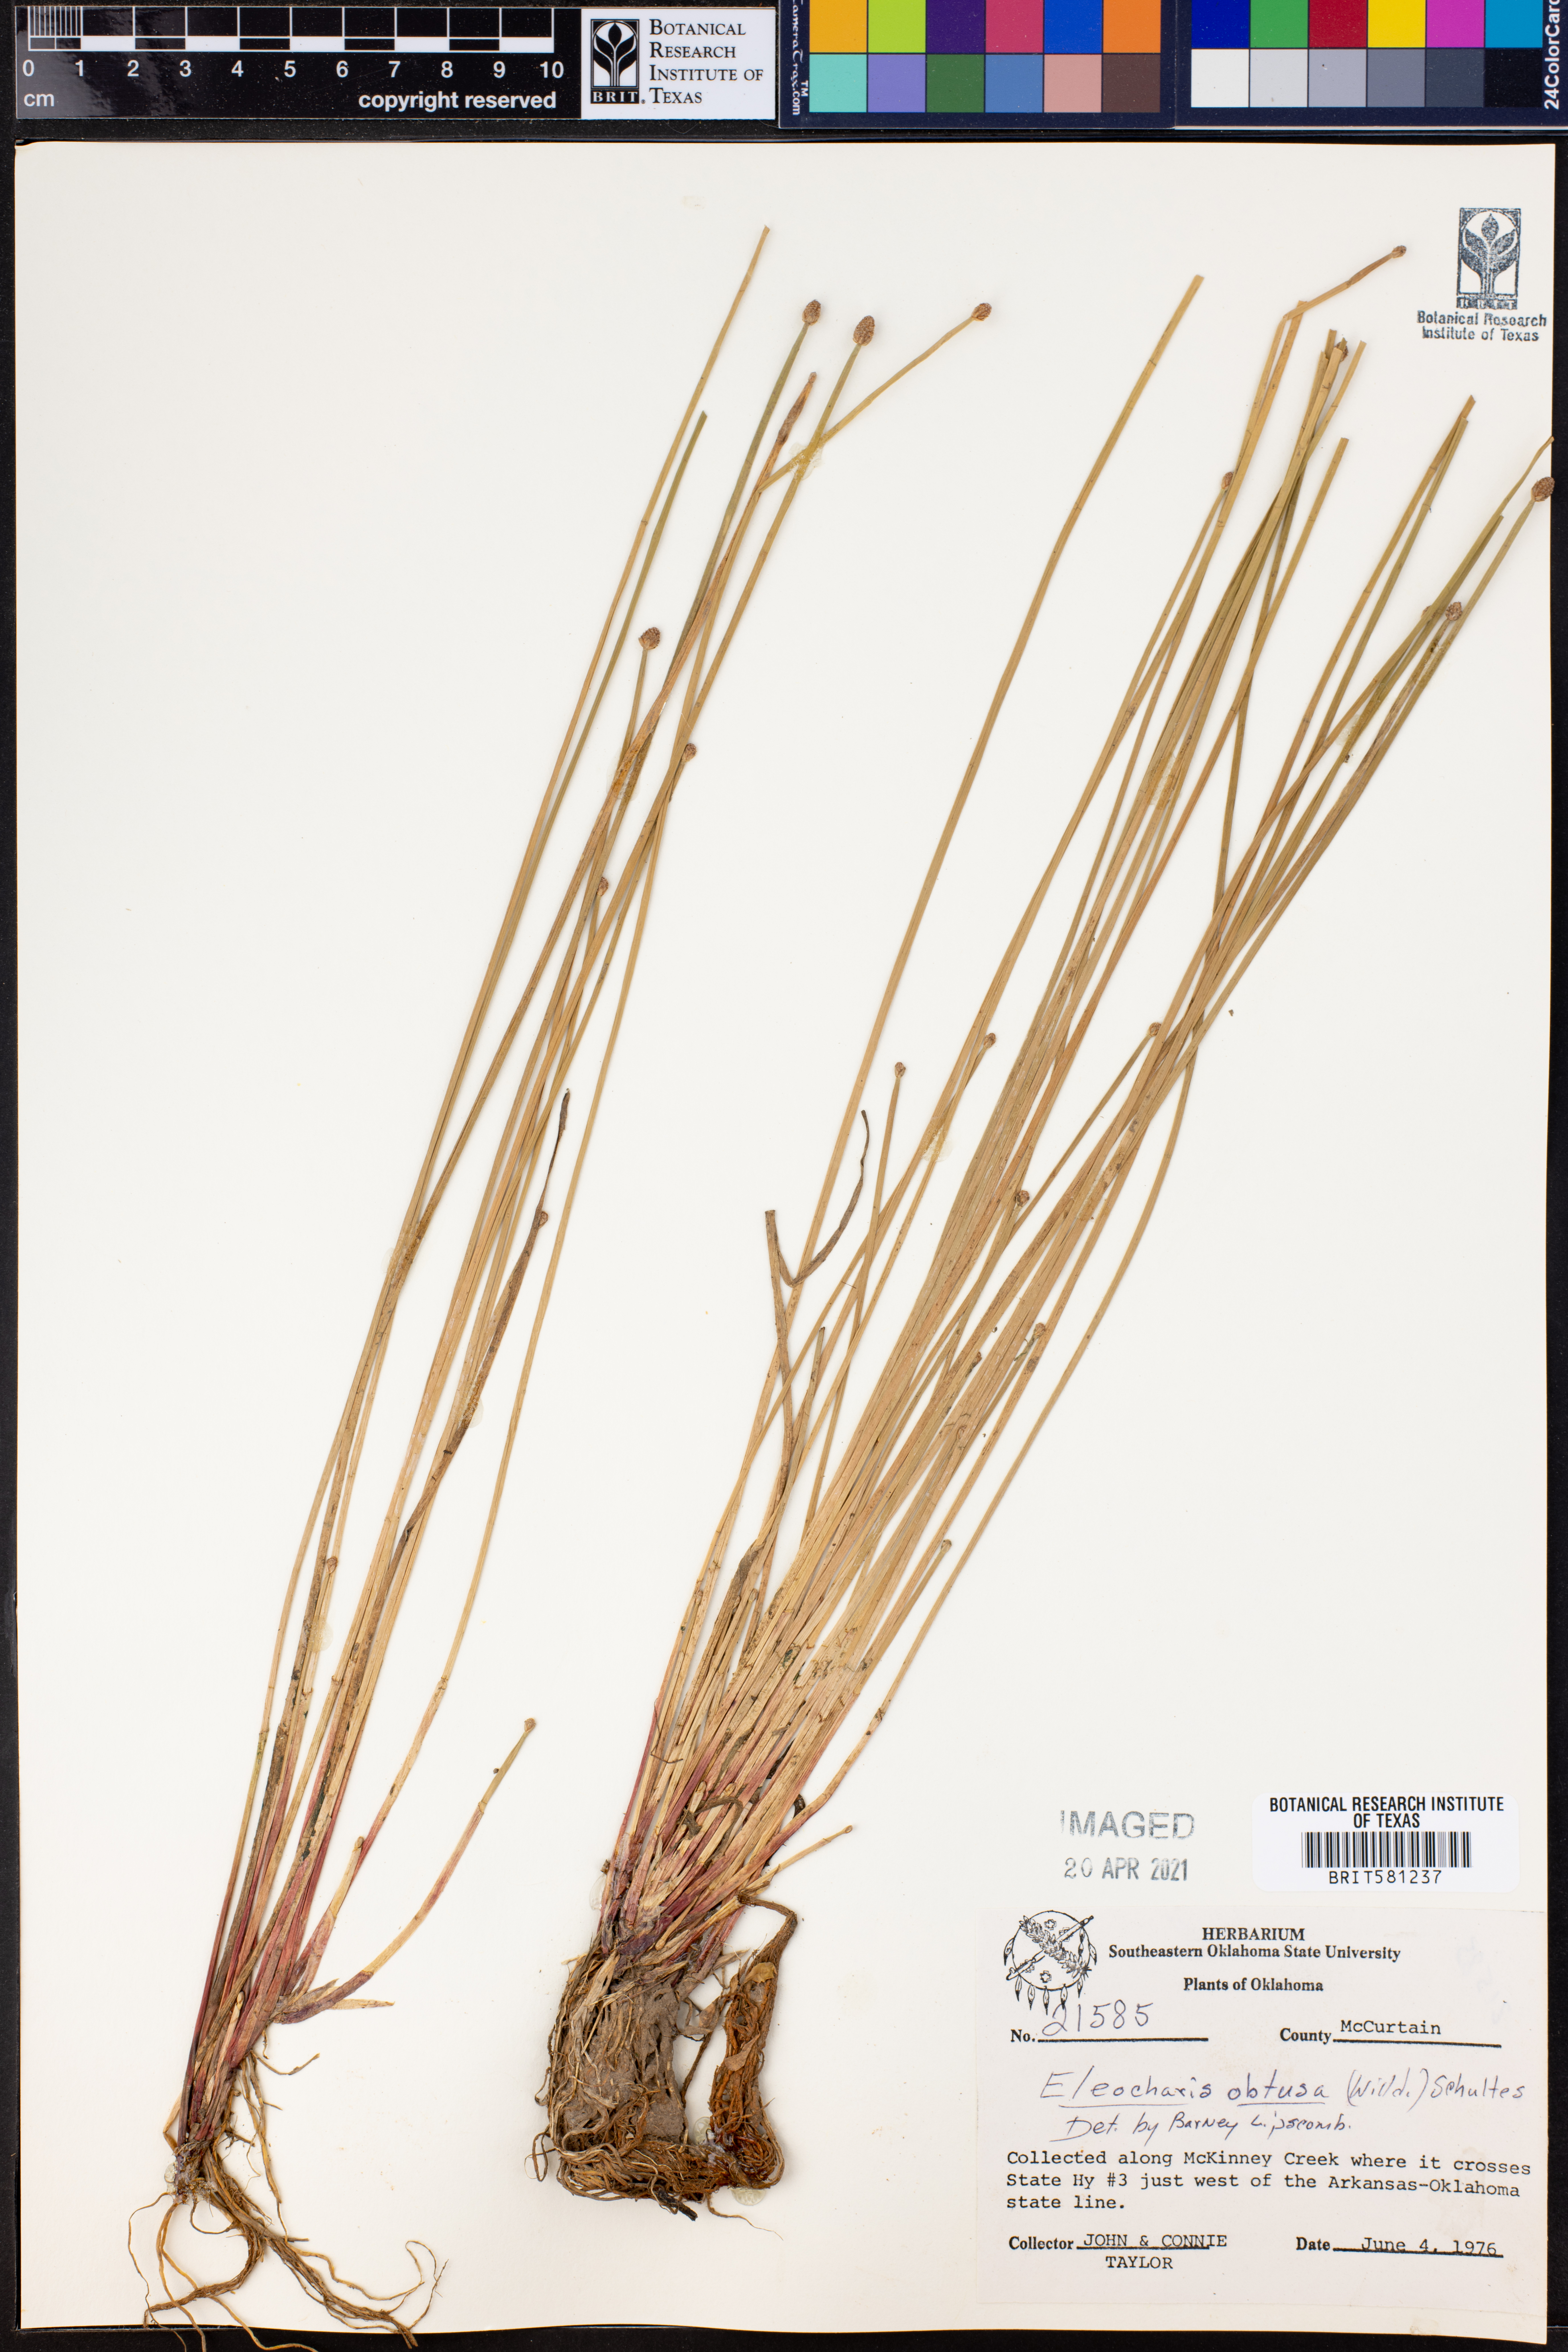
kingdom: Plantae
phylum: Tracheophyta
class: Liliopsida
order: Poales
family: Cyperaceae
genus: Eleocharis
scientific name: Eleocharis obtusa
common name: Blunt spikerush
